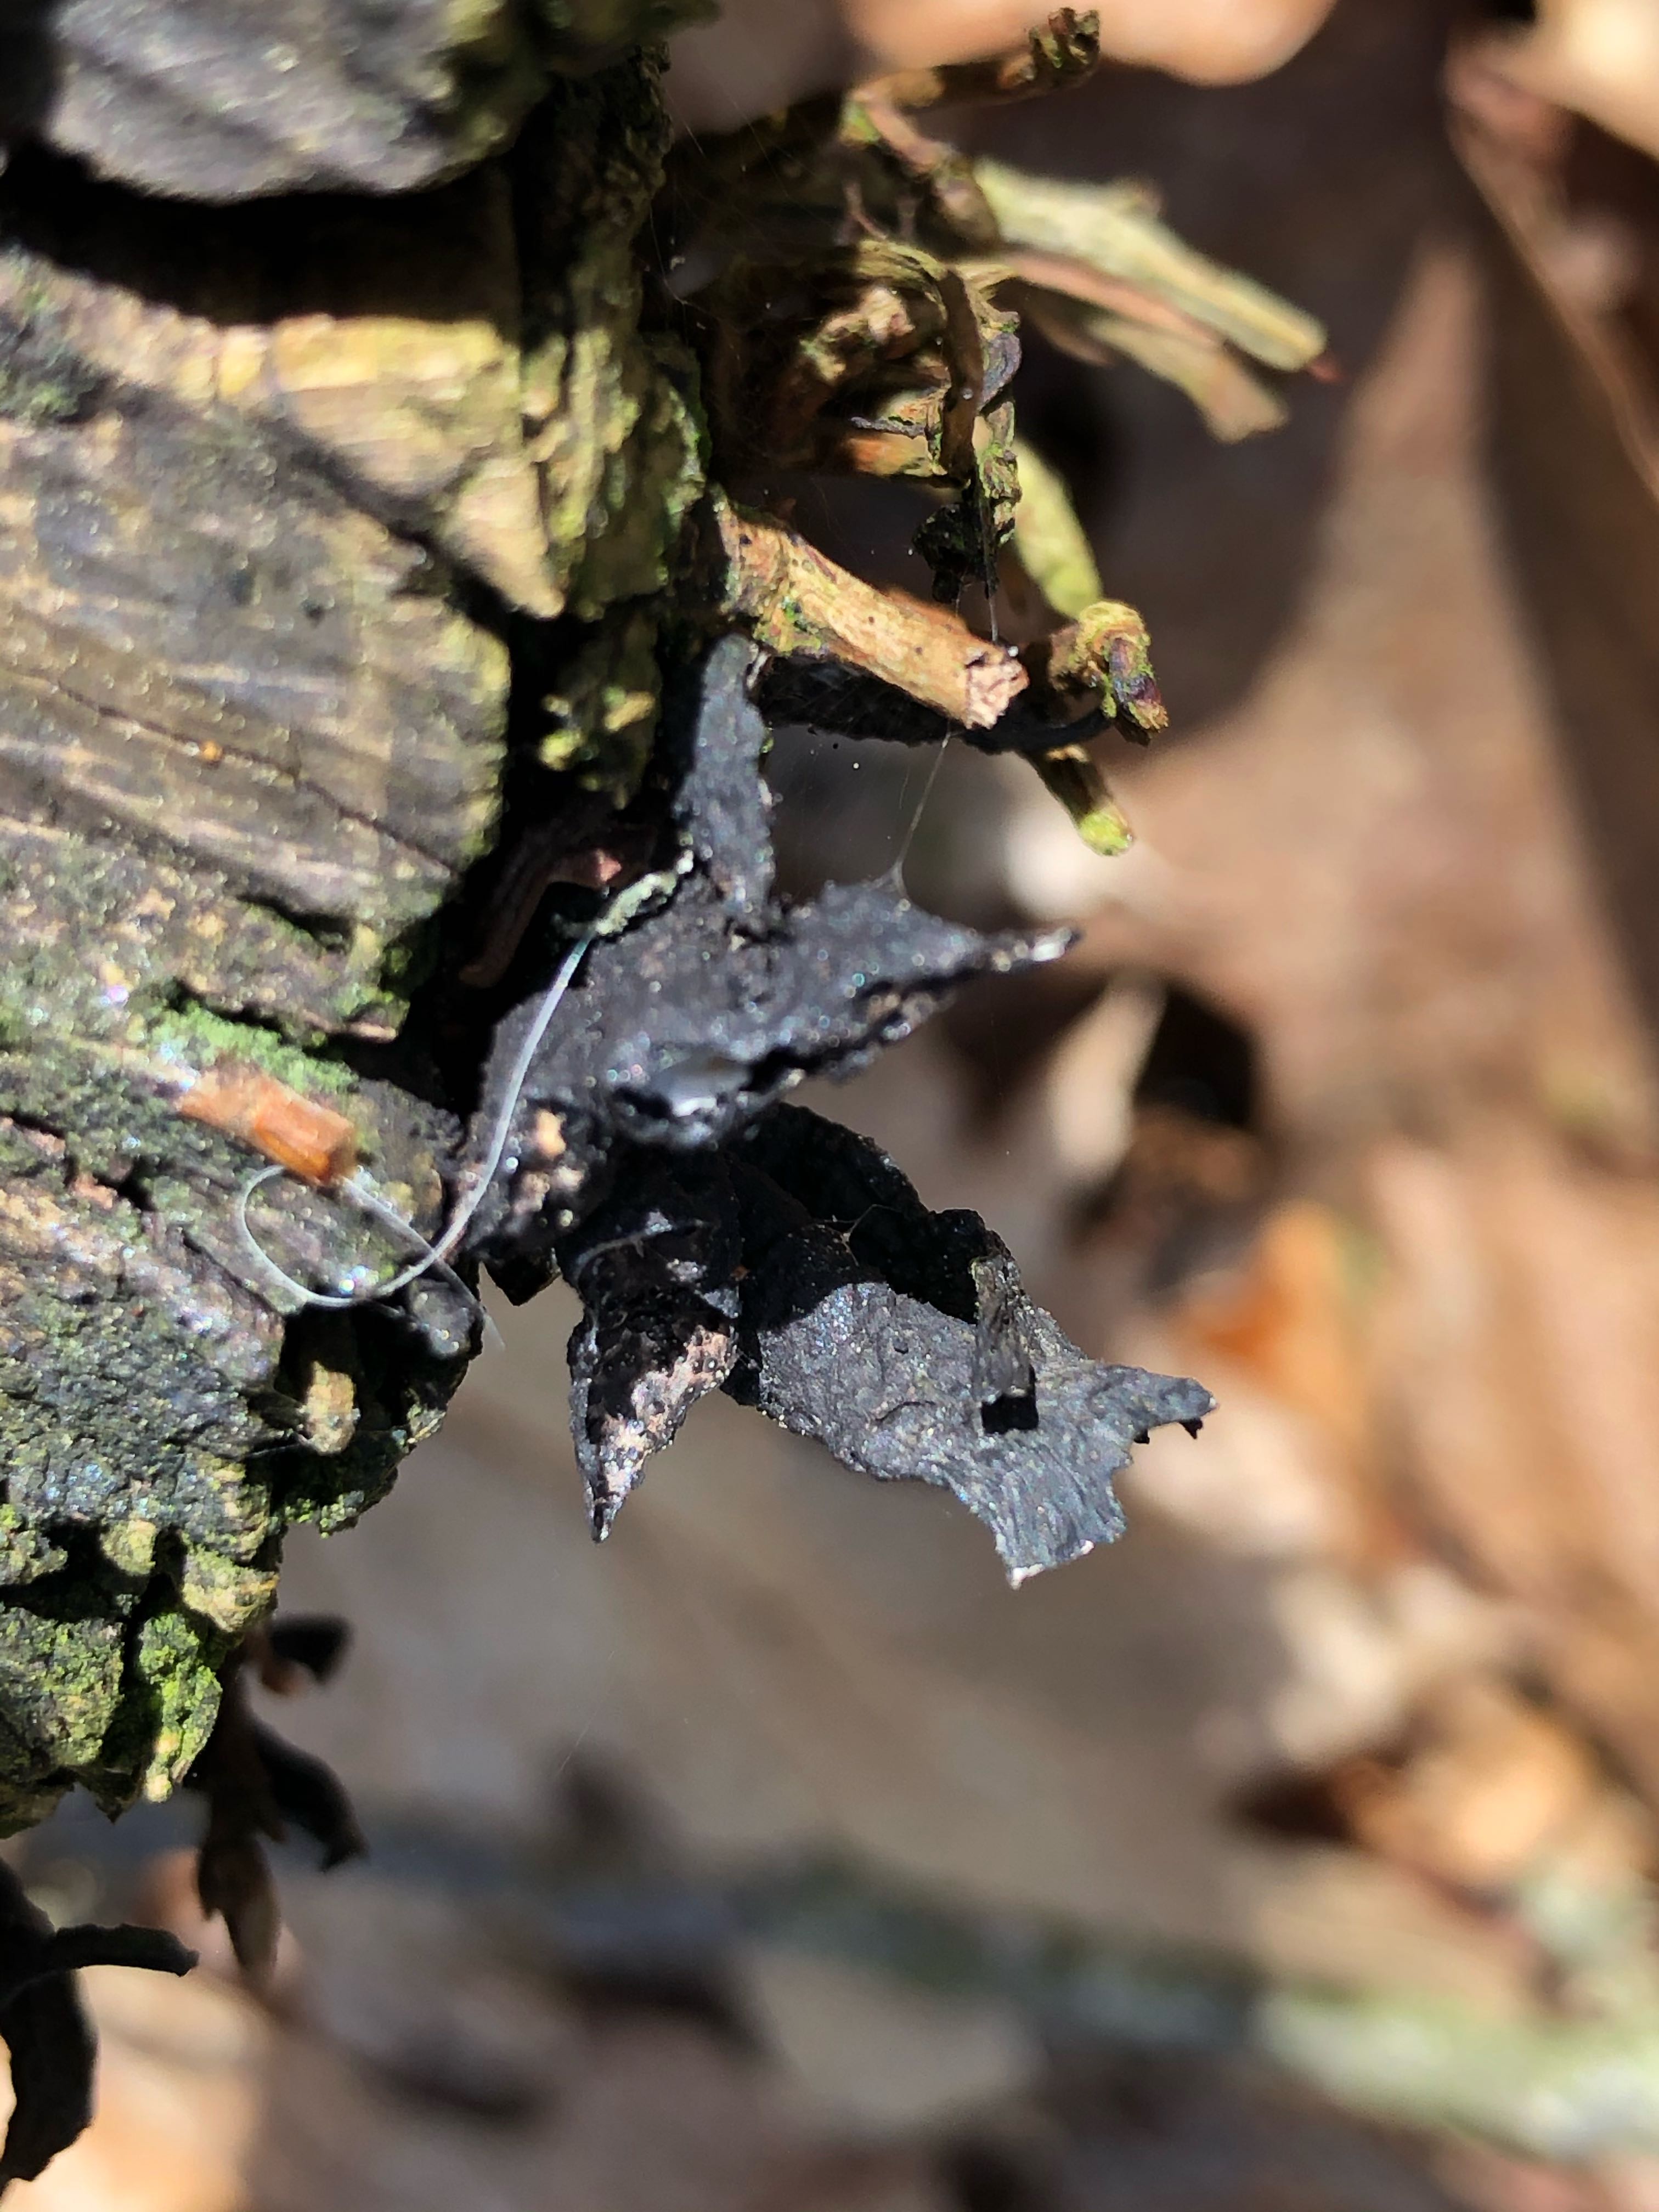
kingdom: Fungi
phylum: Ascomycota
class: Sordariomycetes
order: Xylariales
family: Xylariaceae
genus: Xylaria
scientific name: Xylaria hypoxylon
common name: grenet stødsvamp
